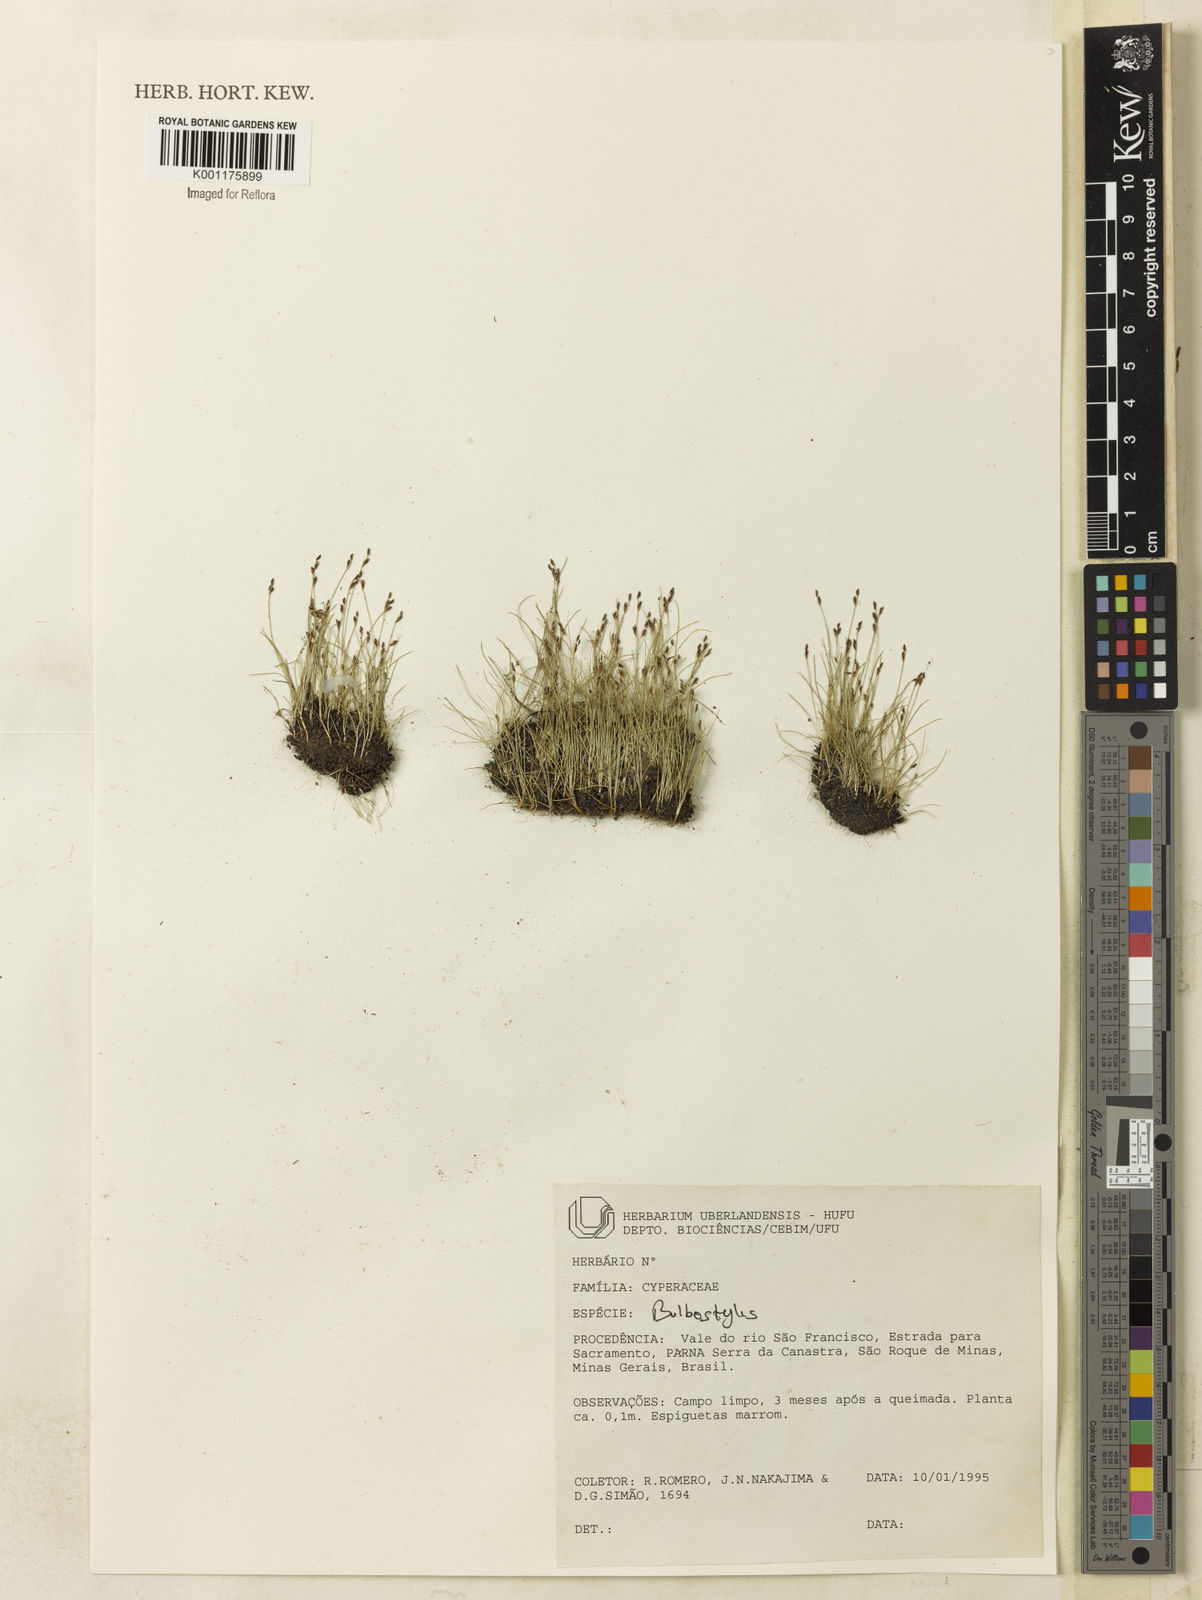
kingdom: Plantae
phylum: Tracheophyta
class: Liliopsida
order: Poales
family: Cyperaceae
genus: Bulbostylis
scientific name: Bulbostylis
